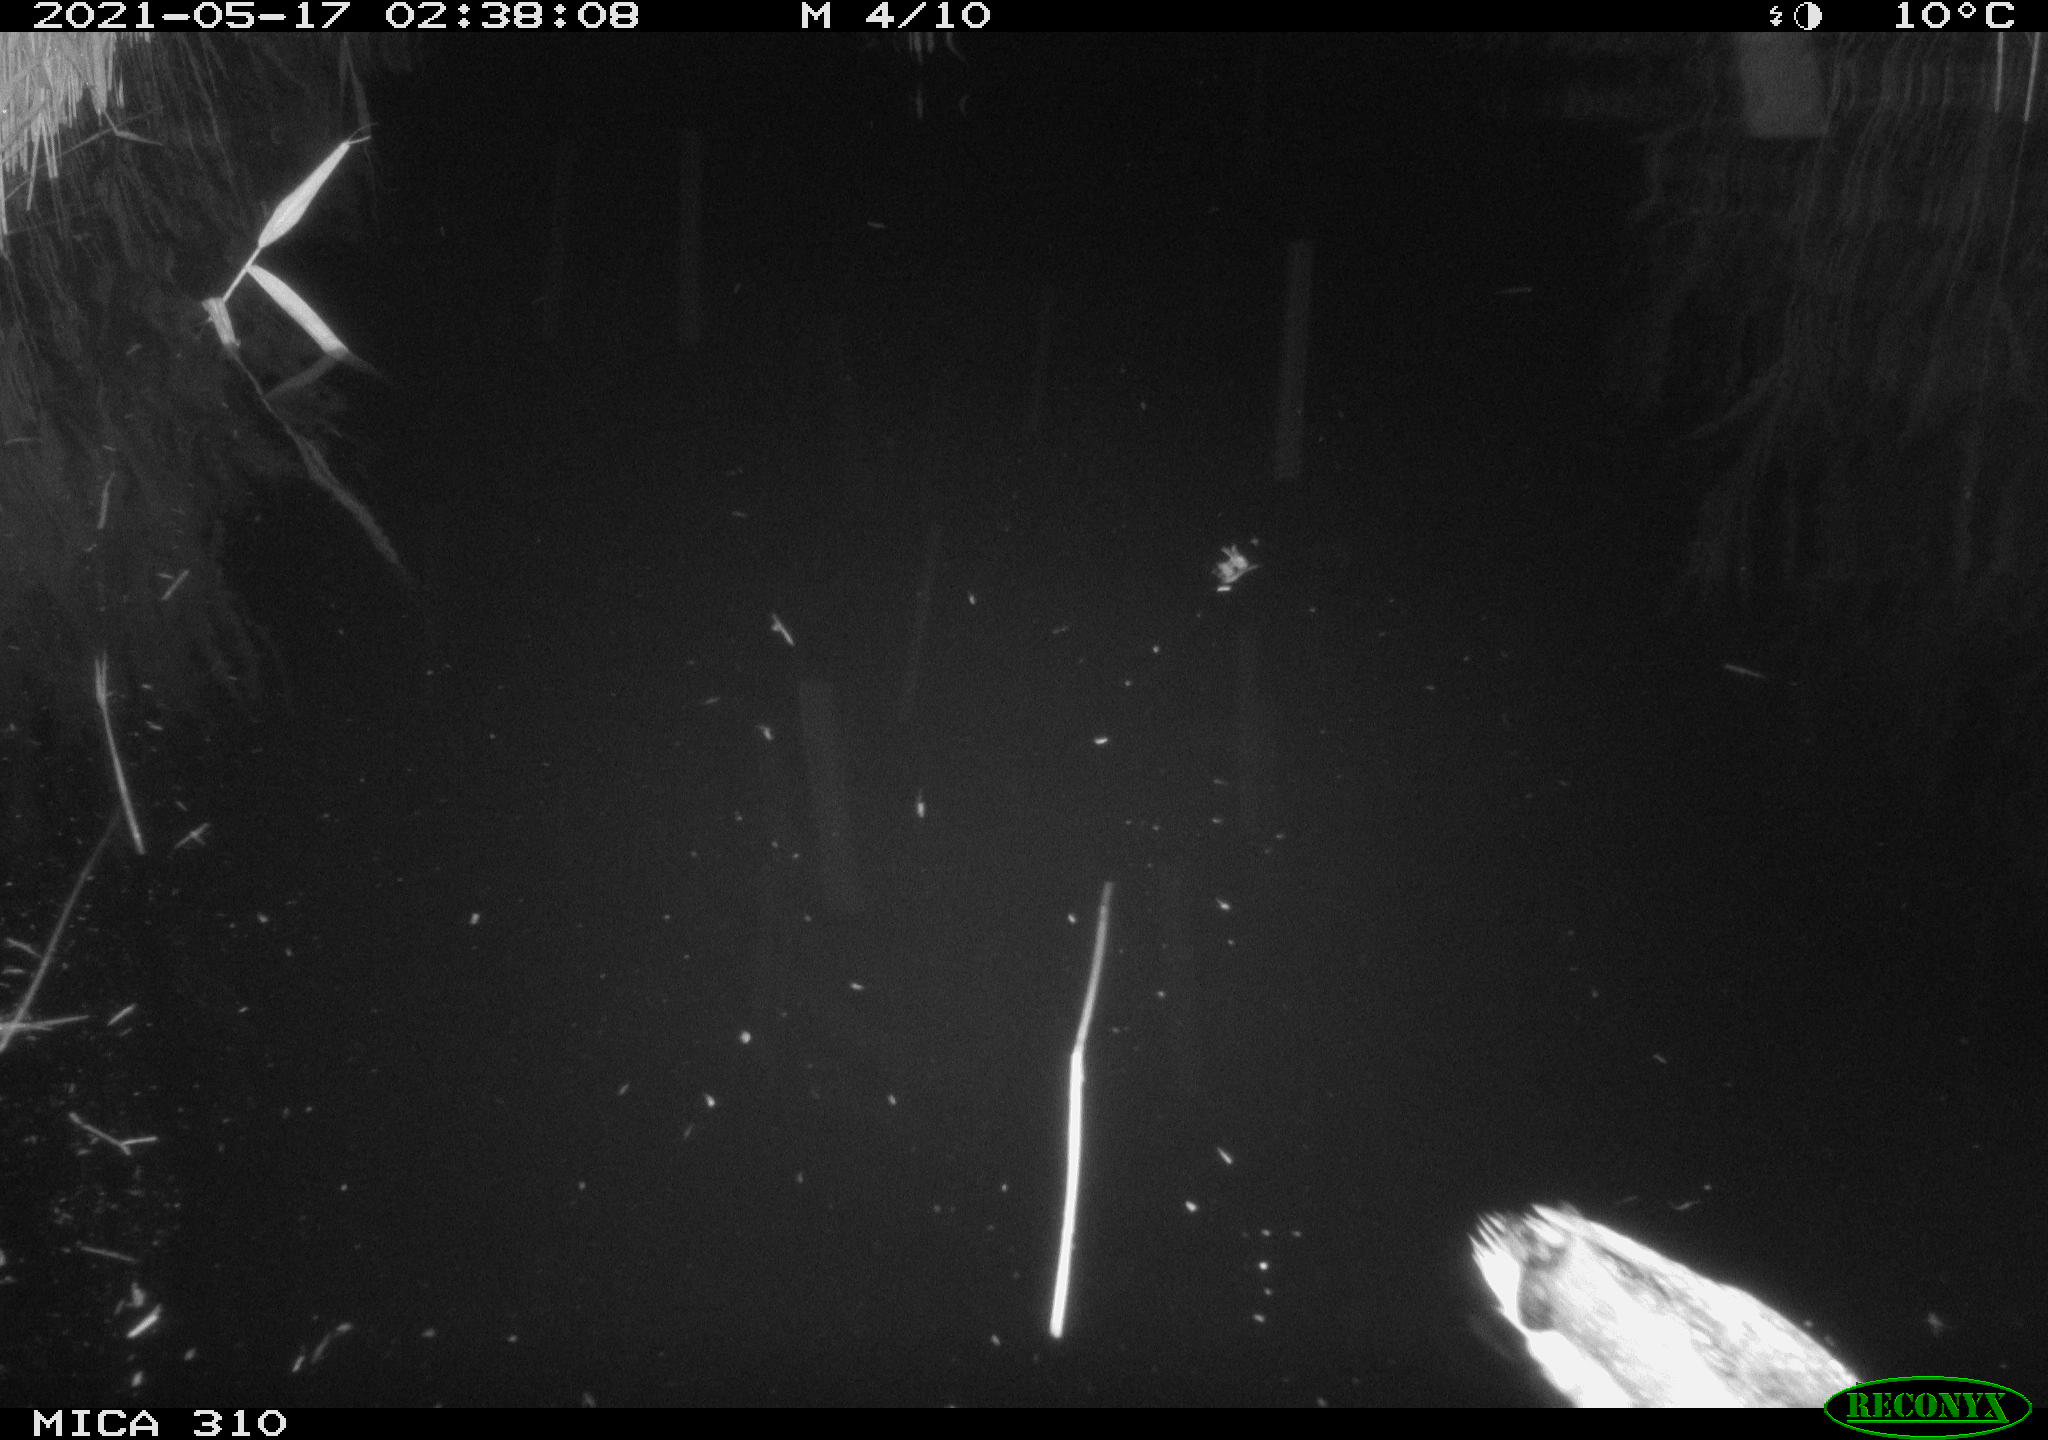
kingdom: Animalia
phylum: Chordata
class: Aves
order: Anseriformes
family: Anatidae
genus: Anas
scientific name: Anas platyrhynchos
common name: Mallard
